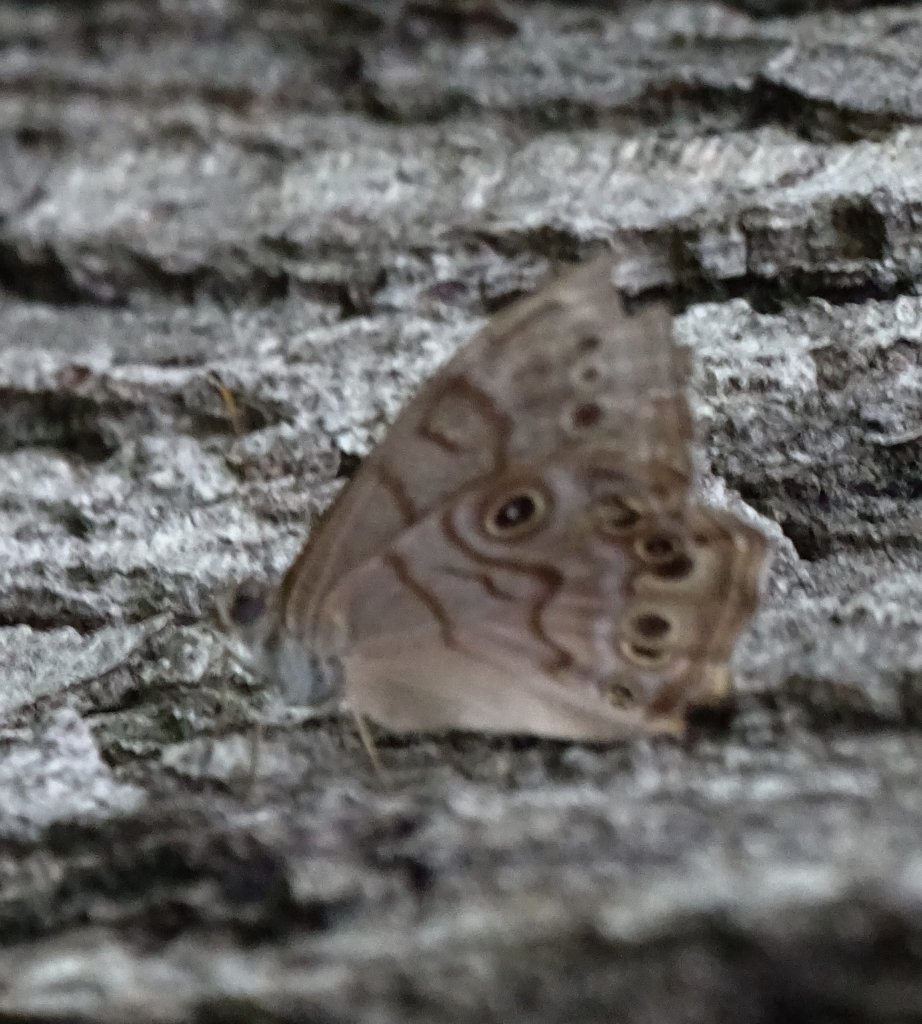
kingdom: Animalia
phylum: Arthropoda
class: Insecta
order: Lepidoptera
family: Nymphalidae
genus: Lethe
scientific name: Lethe anthedon
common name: Northern Pearly-Eye
